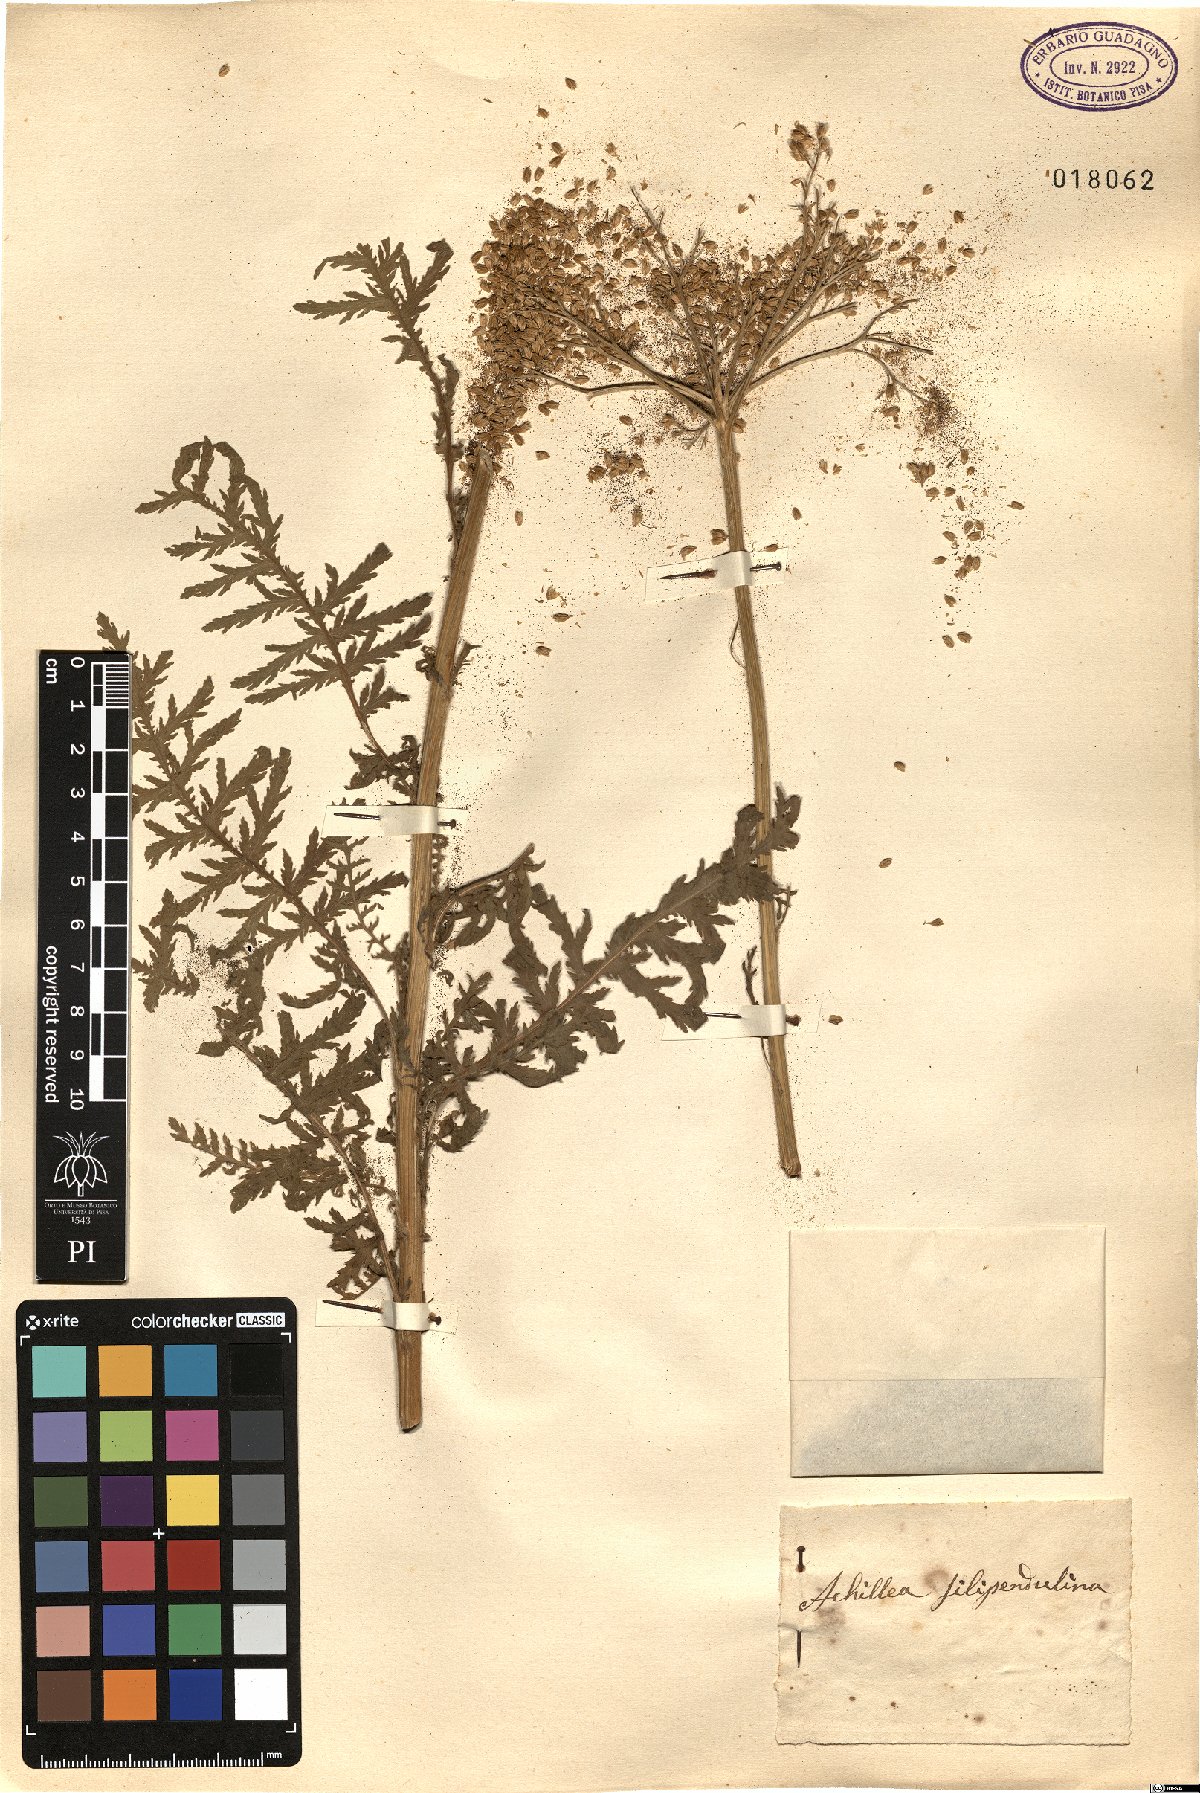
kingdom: Plantae
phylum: Tracheophyta
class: Magnoliopsida
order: Asterales
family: Asteraceae
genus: Achillea
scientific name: Achillea filipendulina
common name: Fernleaf yarrow
